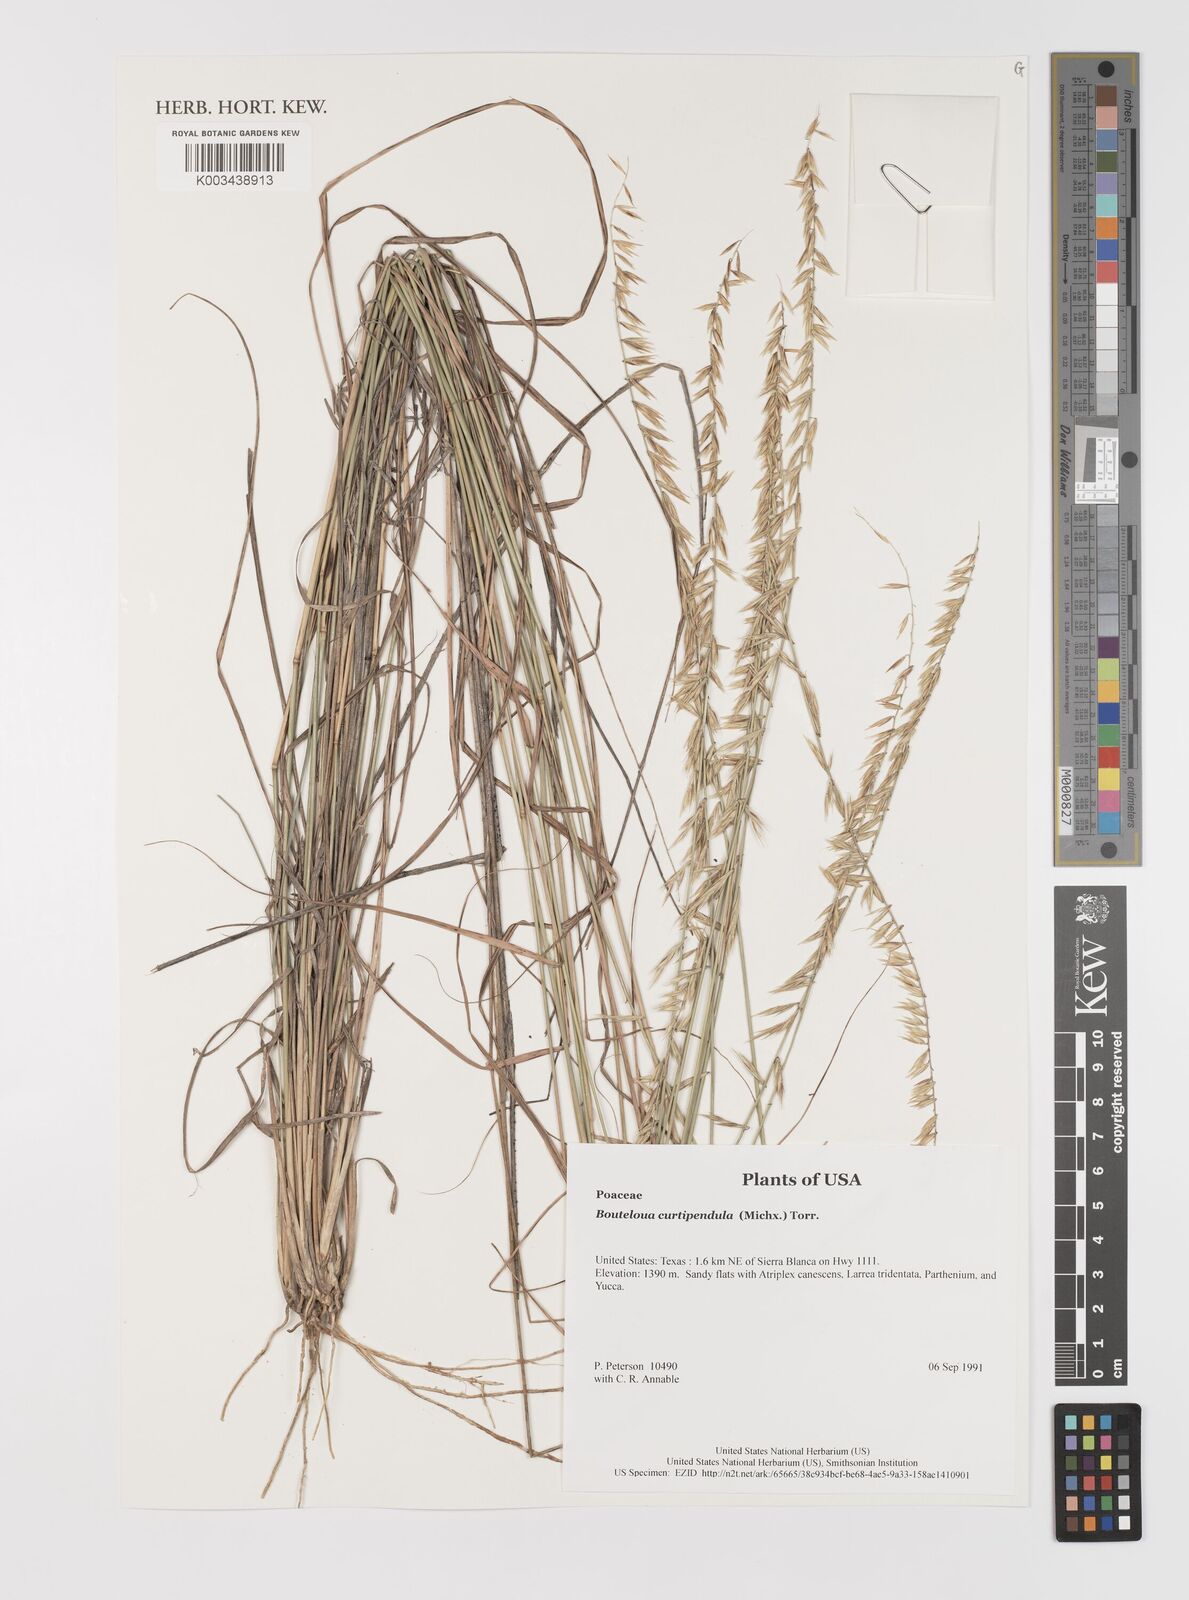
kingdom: Plantae
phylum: Tracheophyta
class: Liliopsida
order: Poales
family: Poaceae
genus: Bouteloua
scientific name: Bouteloua curtipendula
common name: Side-oats grama
